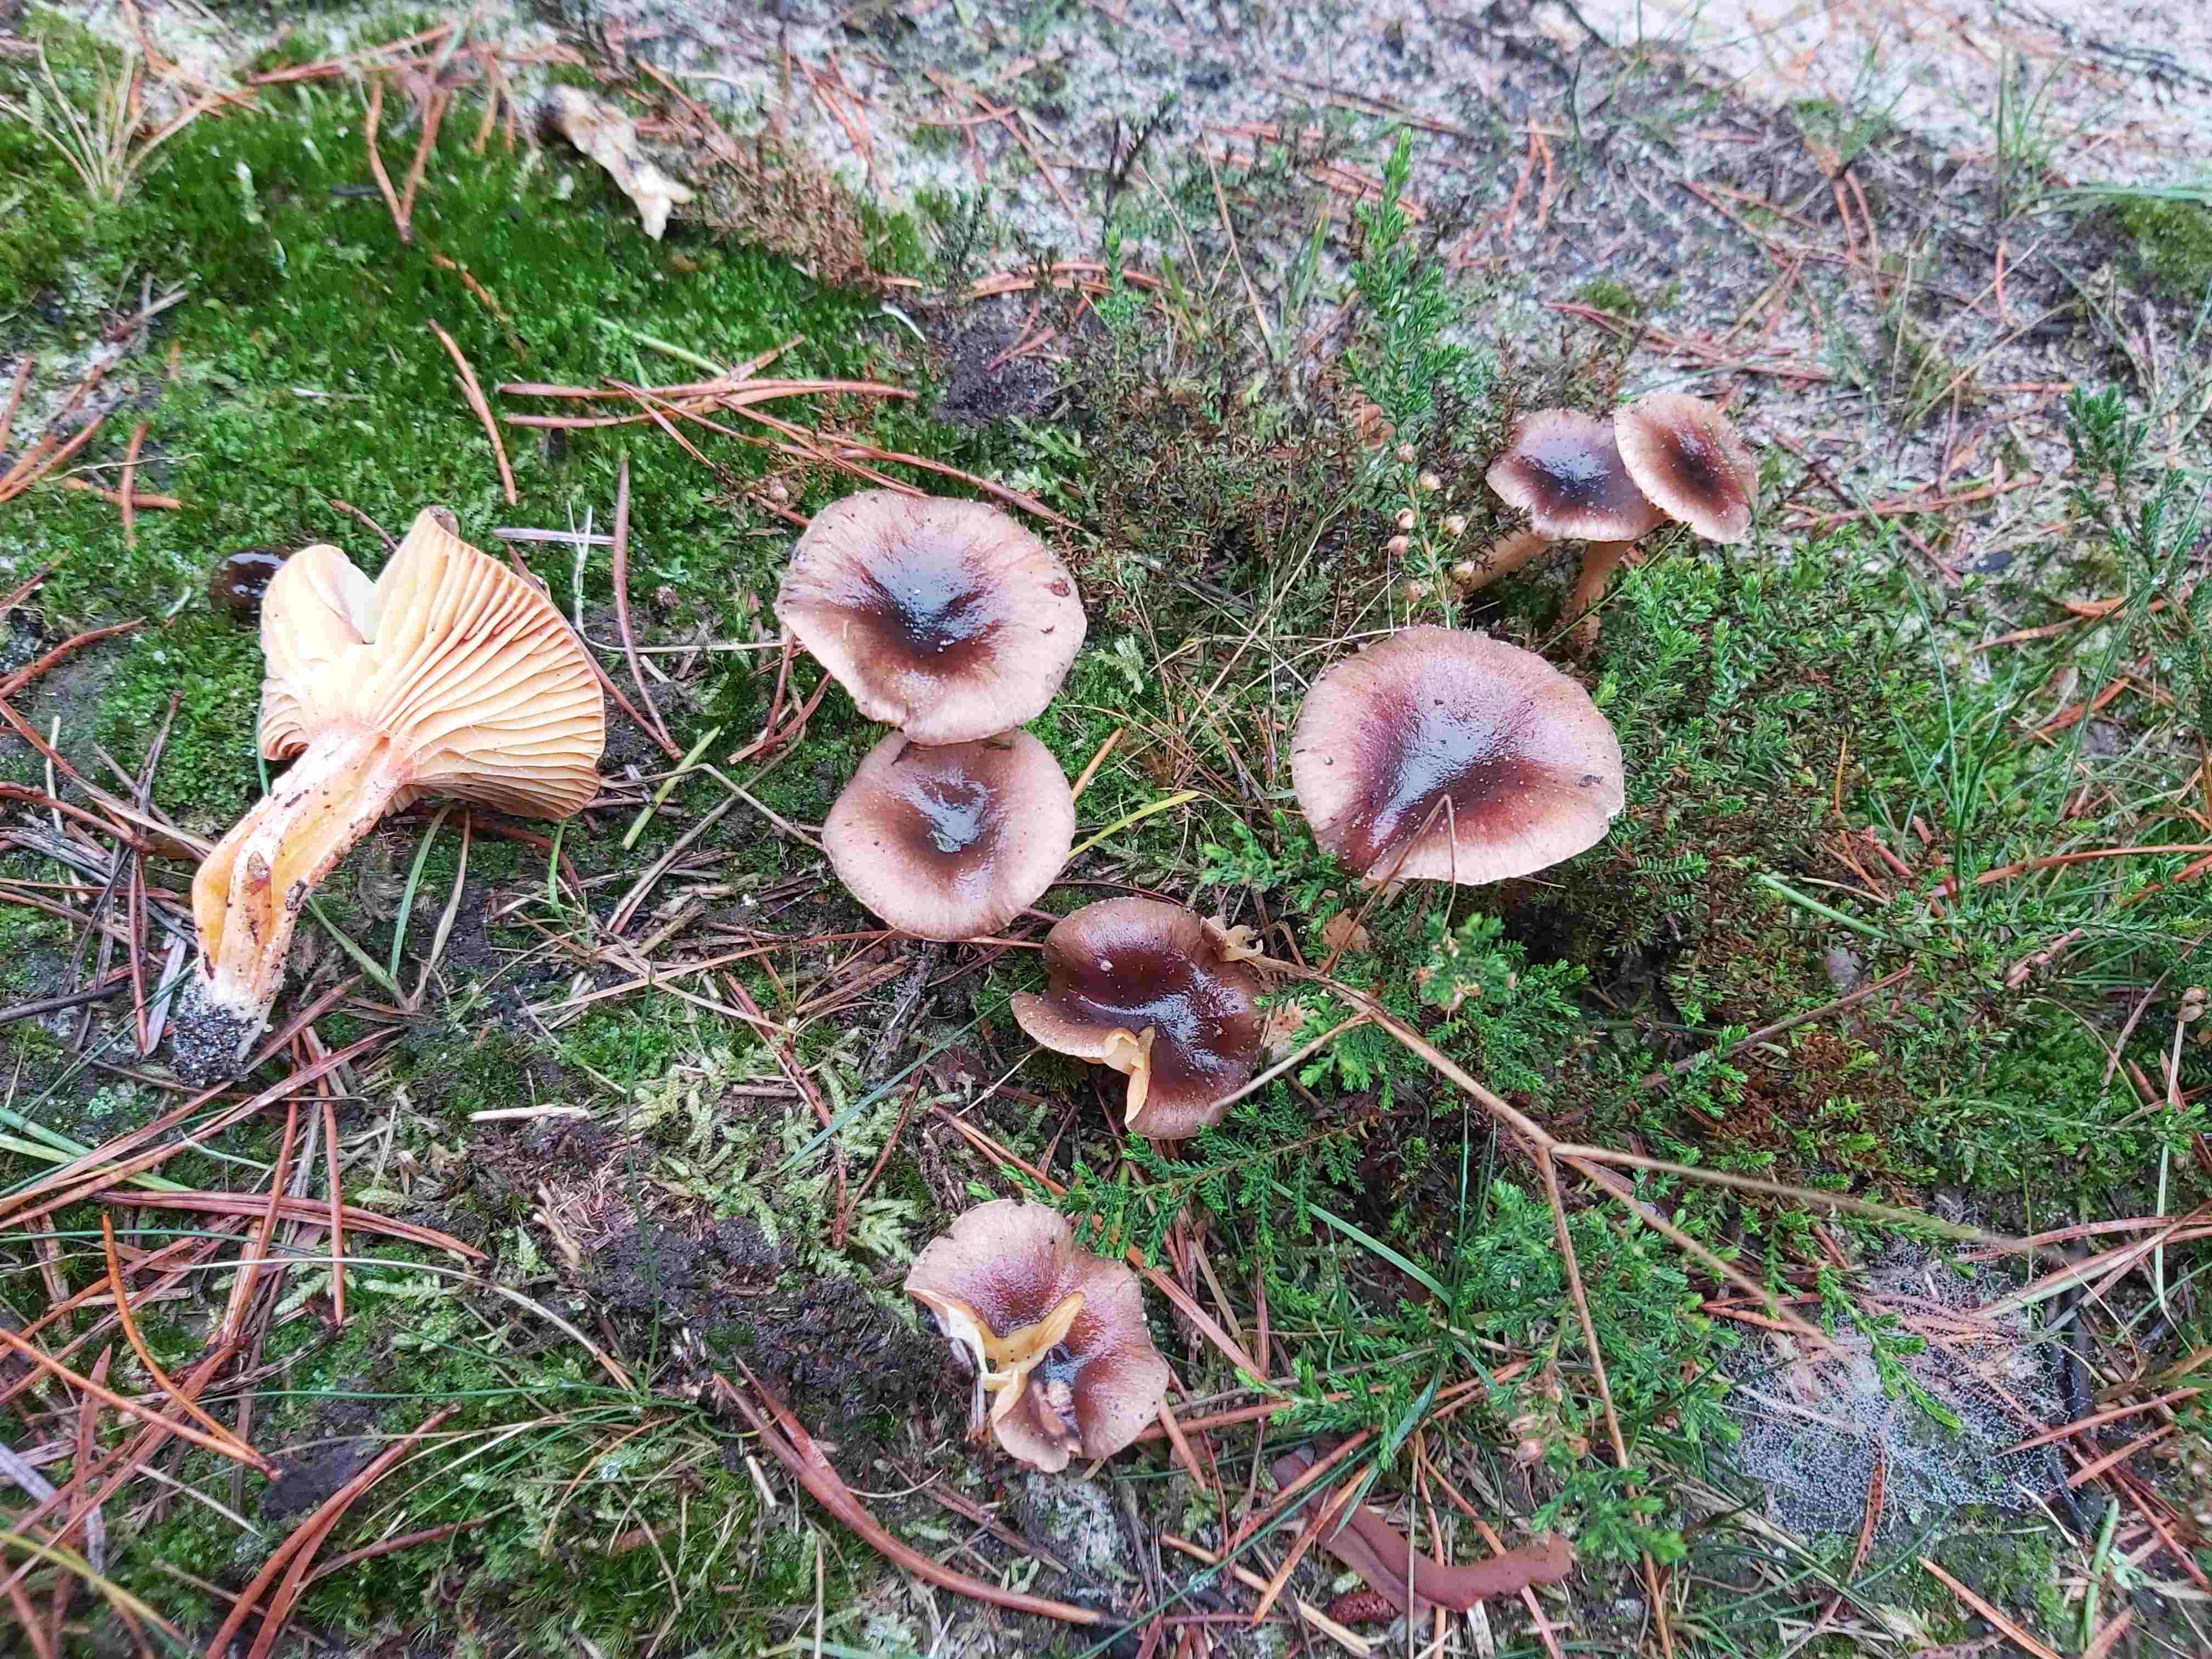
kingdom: Fungi
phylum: Basidiomycota
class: Agaricomycetes
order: Agaricales
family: Hygrophoraceae
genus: Hygrophorus
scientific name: Hygrophorus hypothejus
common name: frost-sneglehat
